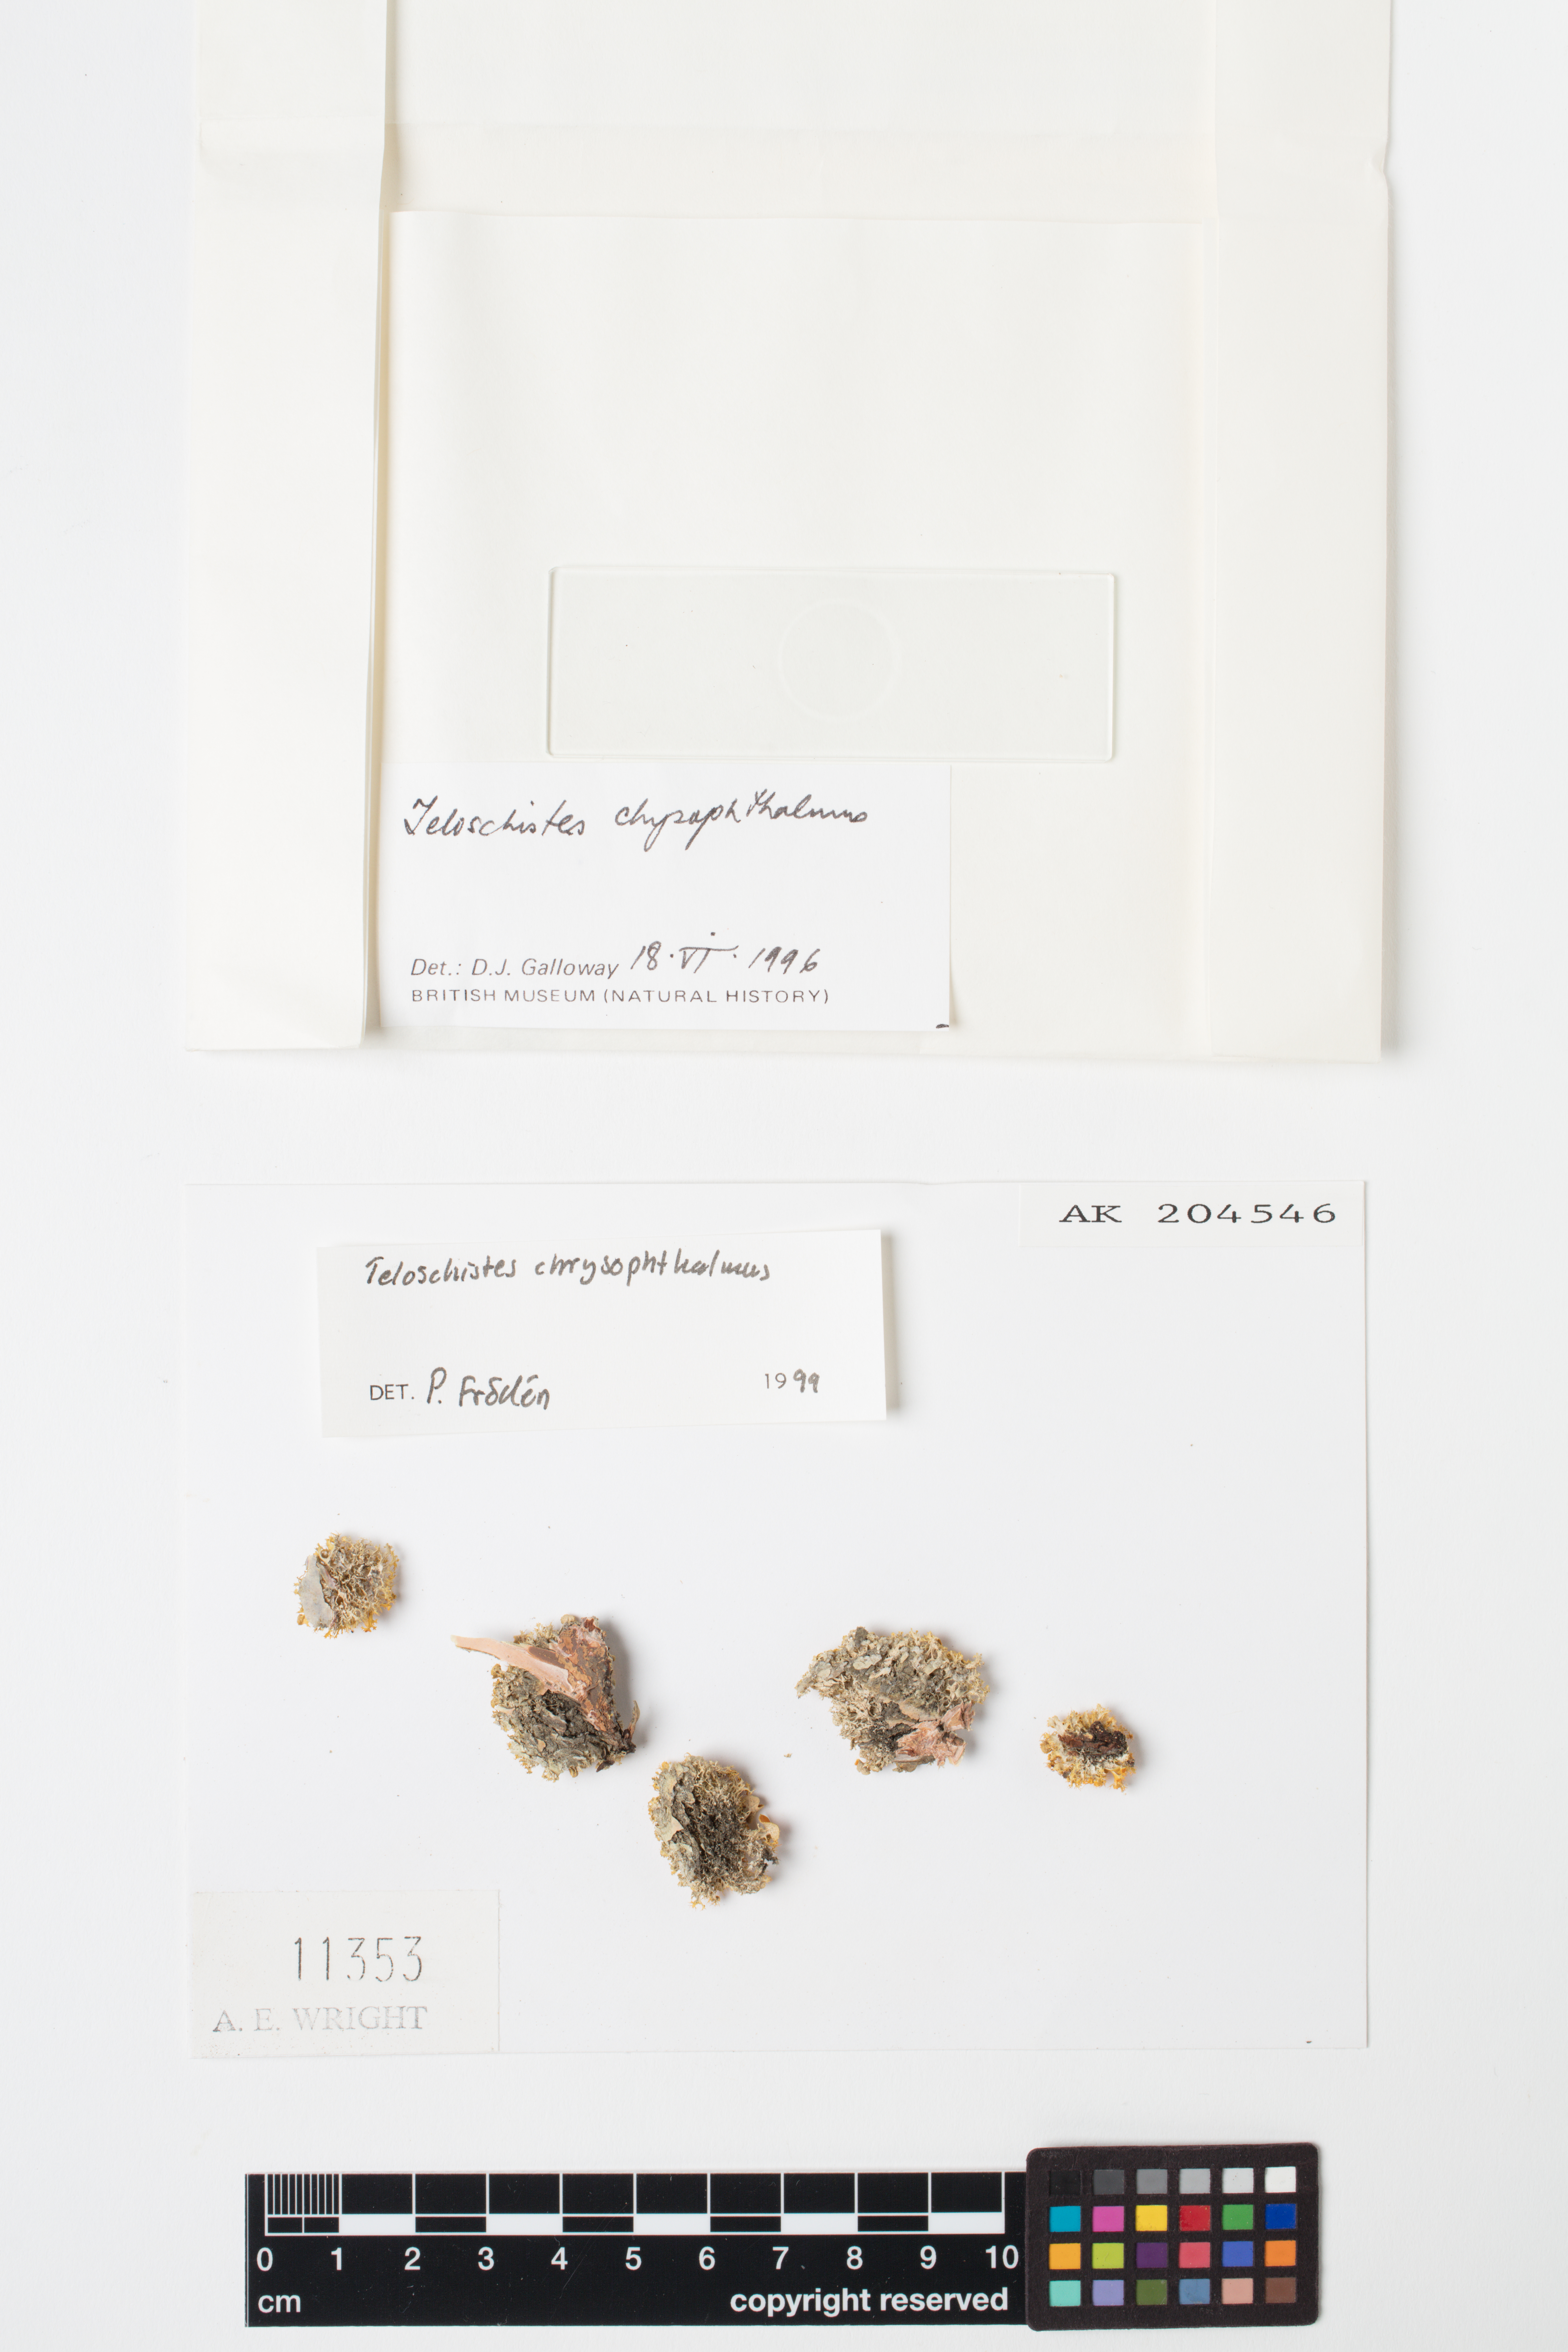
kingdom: Fungi
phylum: Ascomycota
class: Lecanoromycetes
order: Teloschistales
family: Teloschistaceae
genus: Niorma
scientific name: Niorma chrysophthalma
